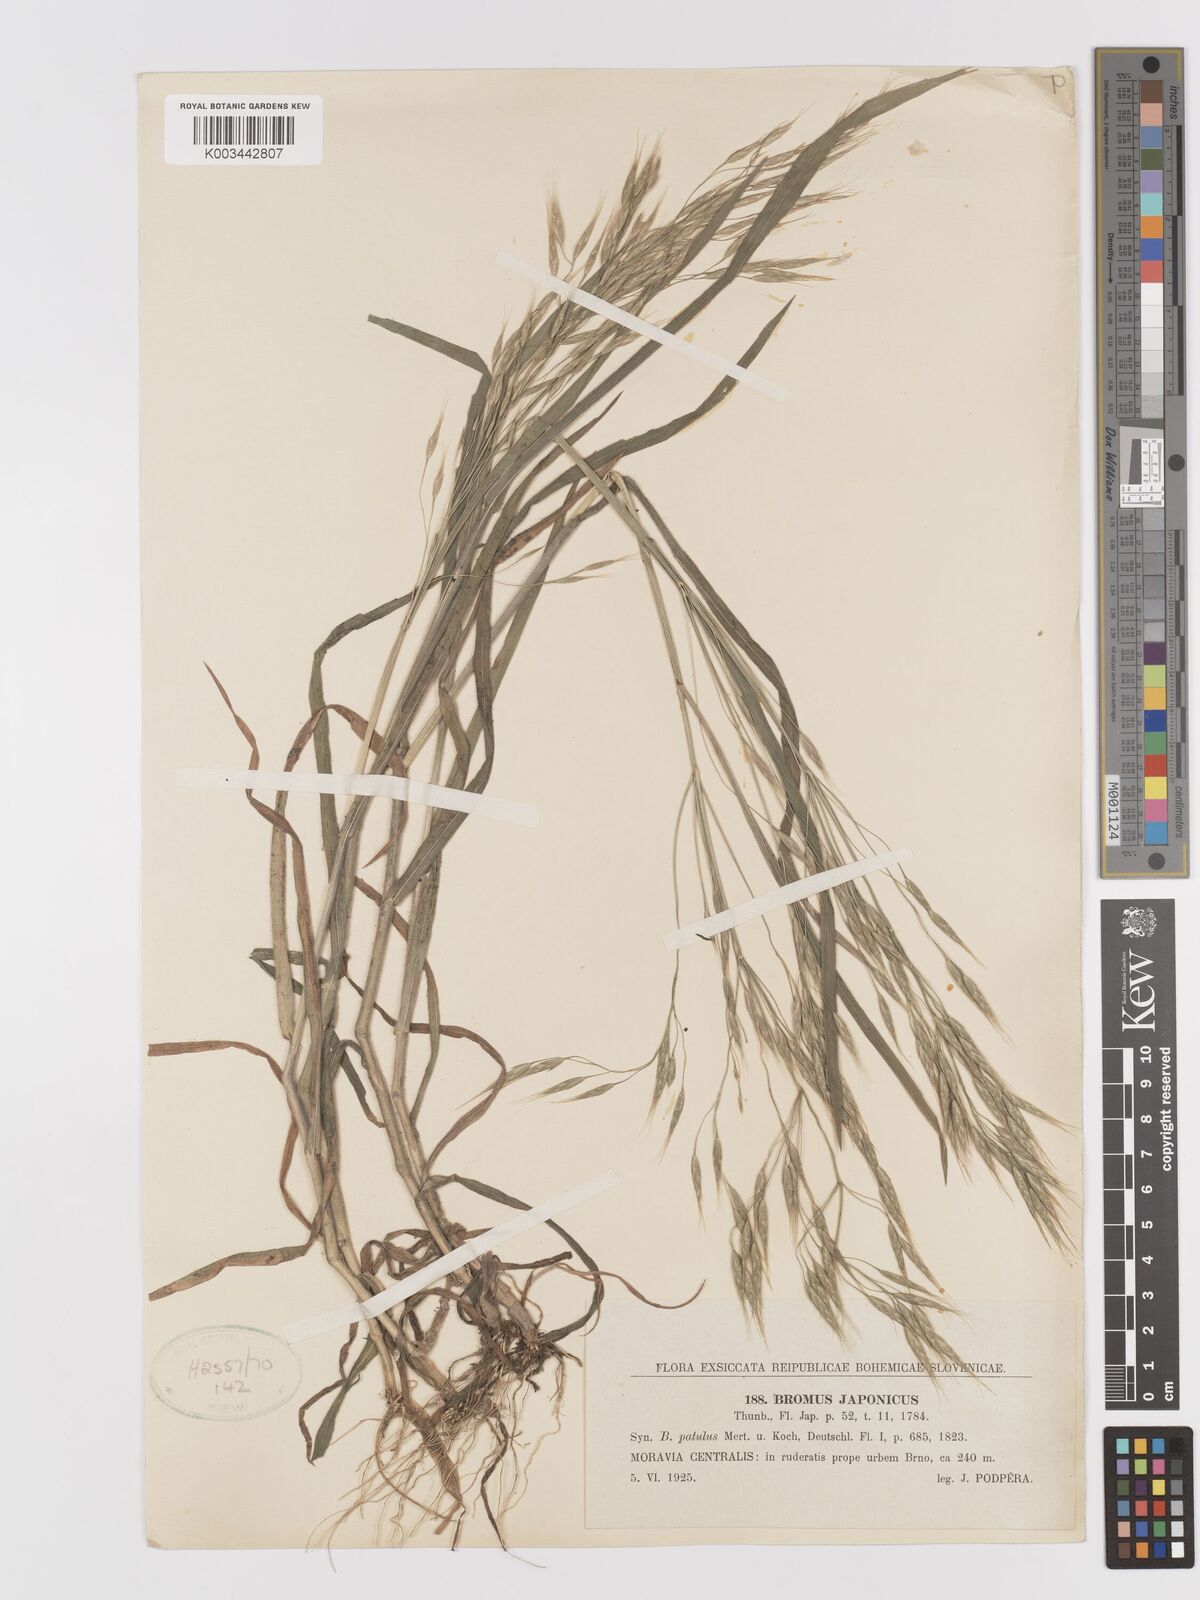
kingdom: Plantae
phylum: Tracheophyta
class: Liliopsida
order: Poales
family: Poaceae
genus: Bromus
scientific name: Bromus japonicus
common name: Japanese brome
